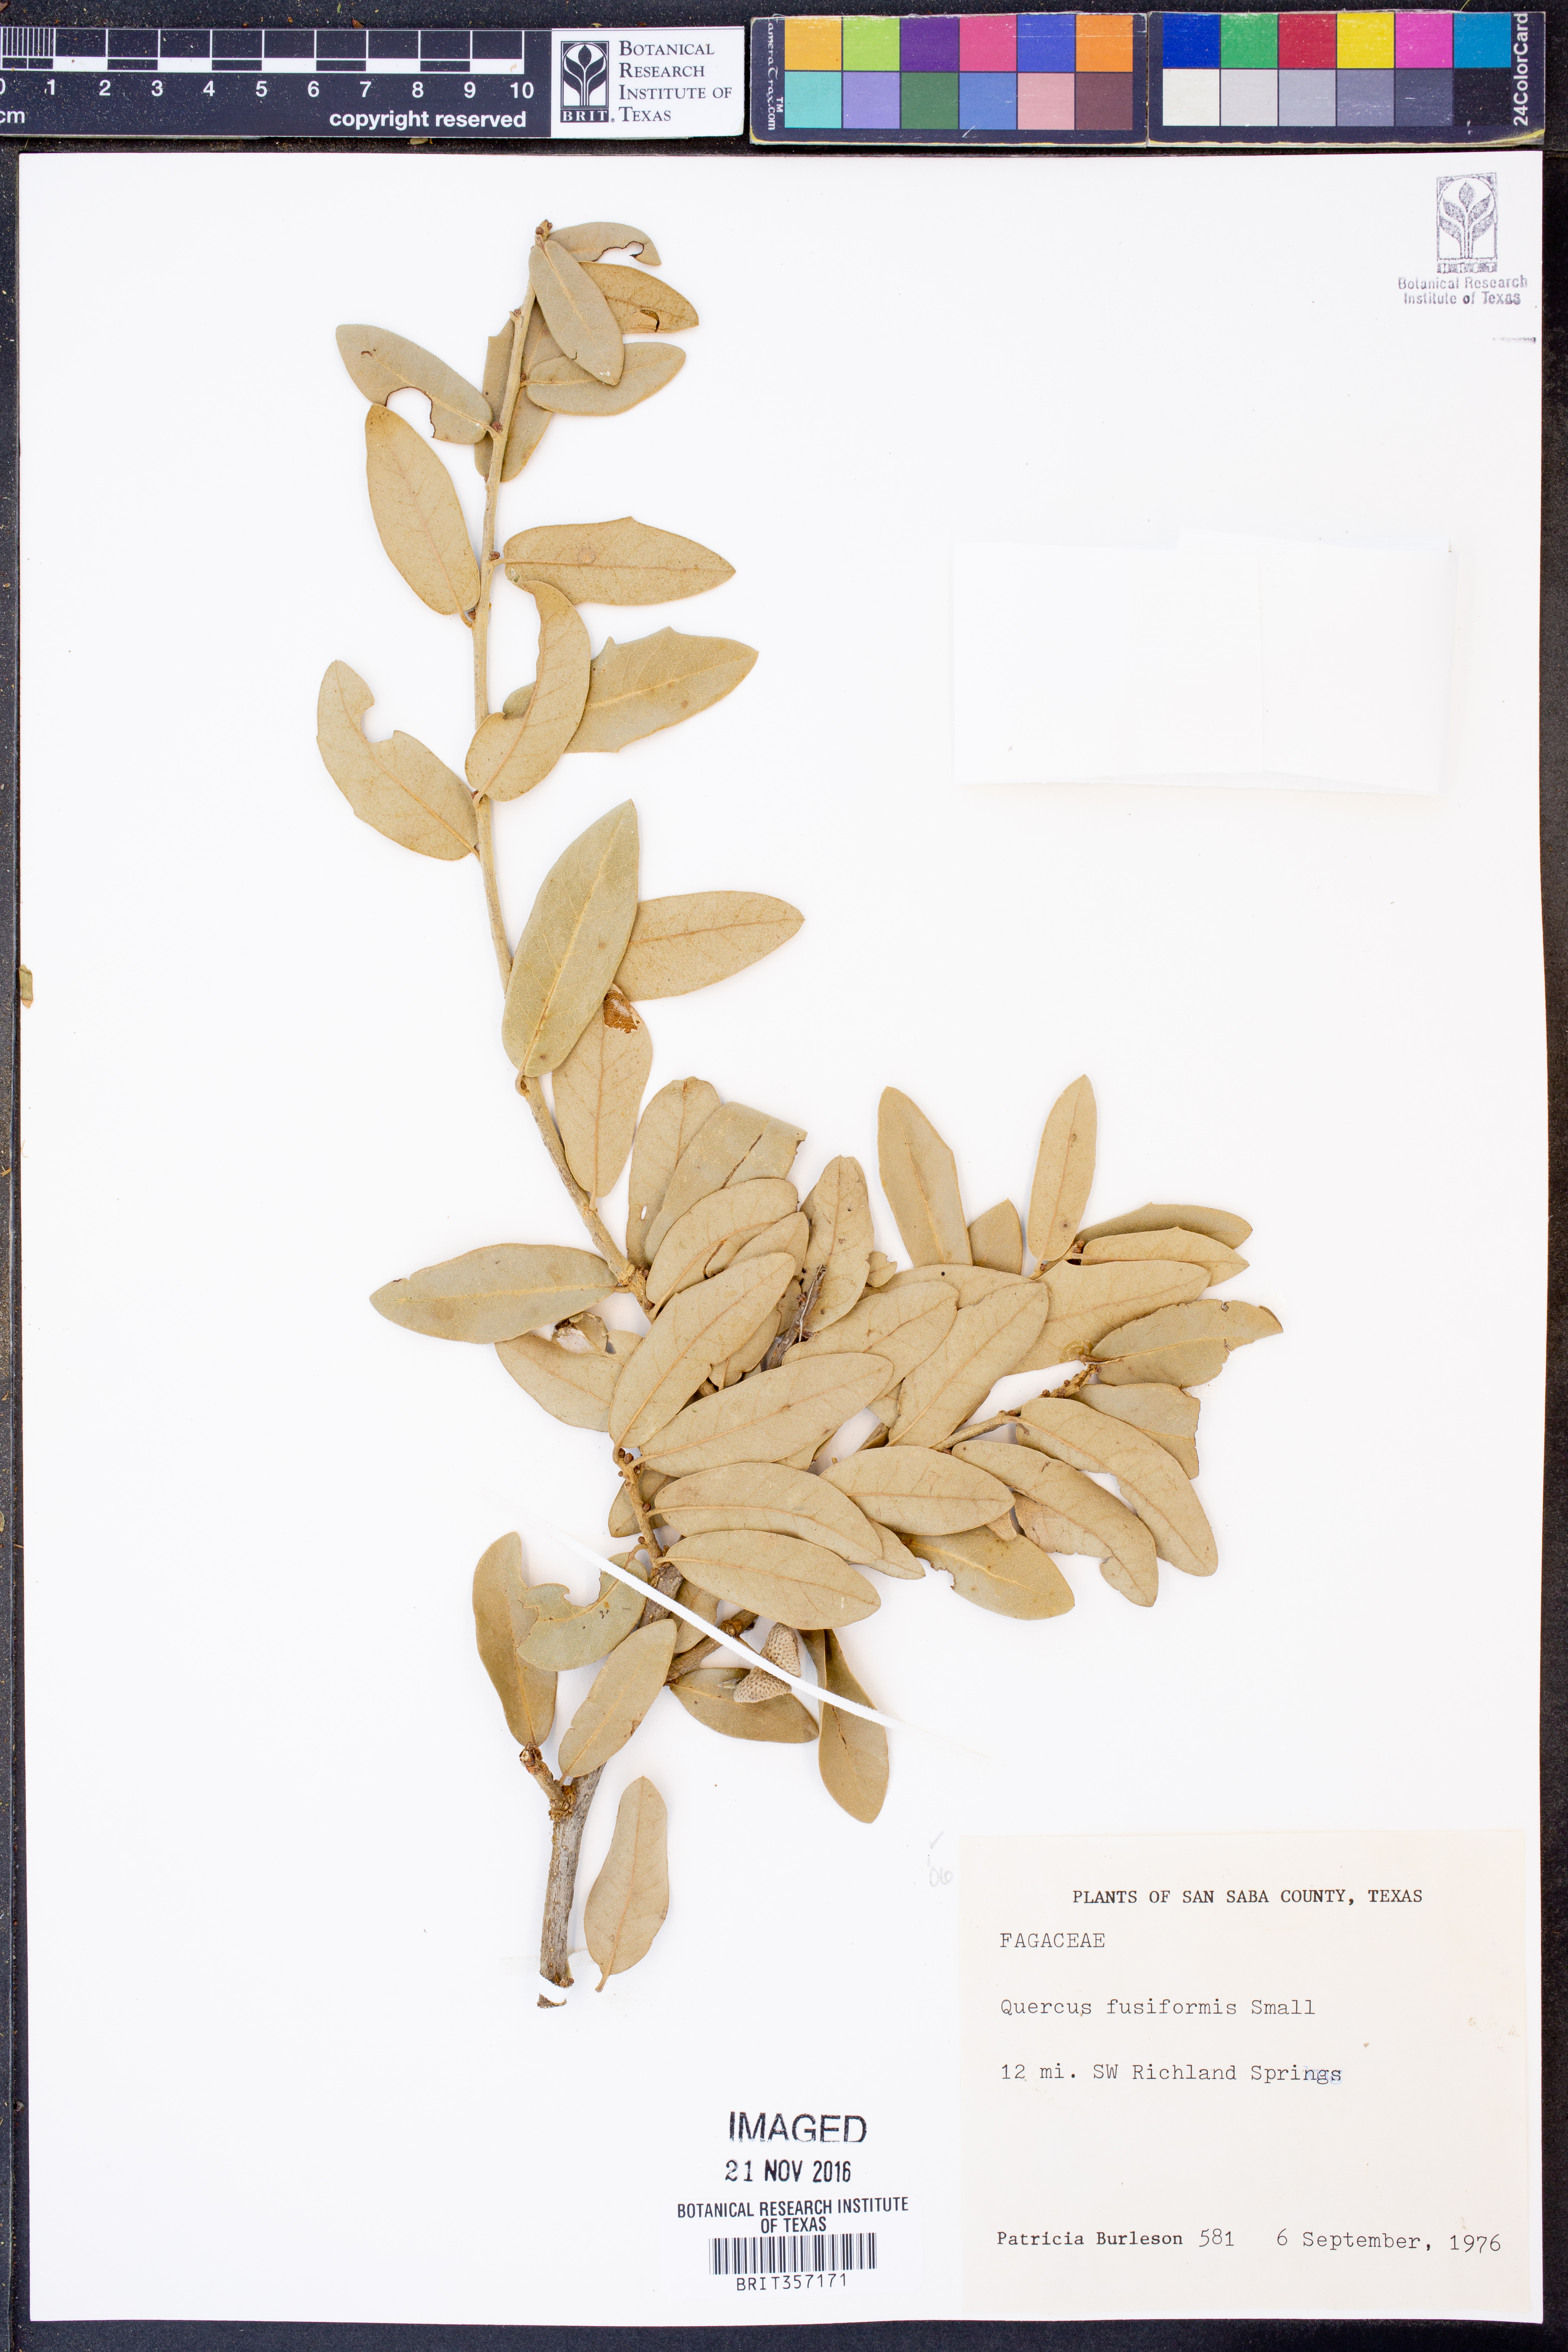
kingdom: Plantae
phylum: Tracheophyta
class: Magnoliopsida
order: Fagales
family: Fagaceae
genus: Quercus
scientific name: Quercus fusiformis
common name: Texas live oak
